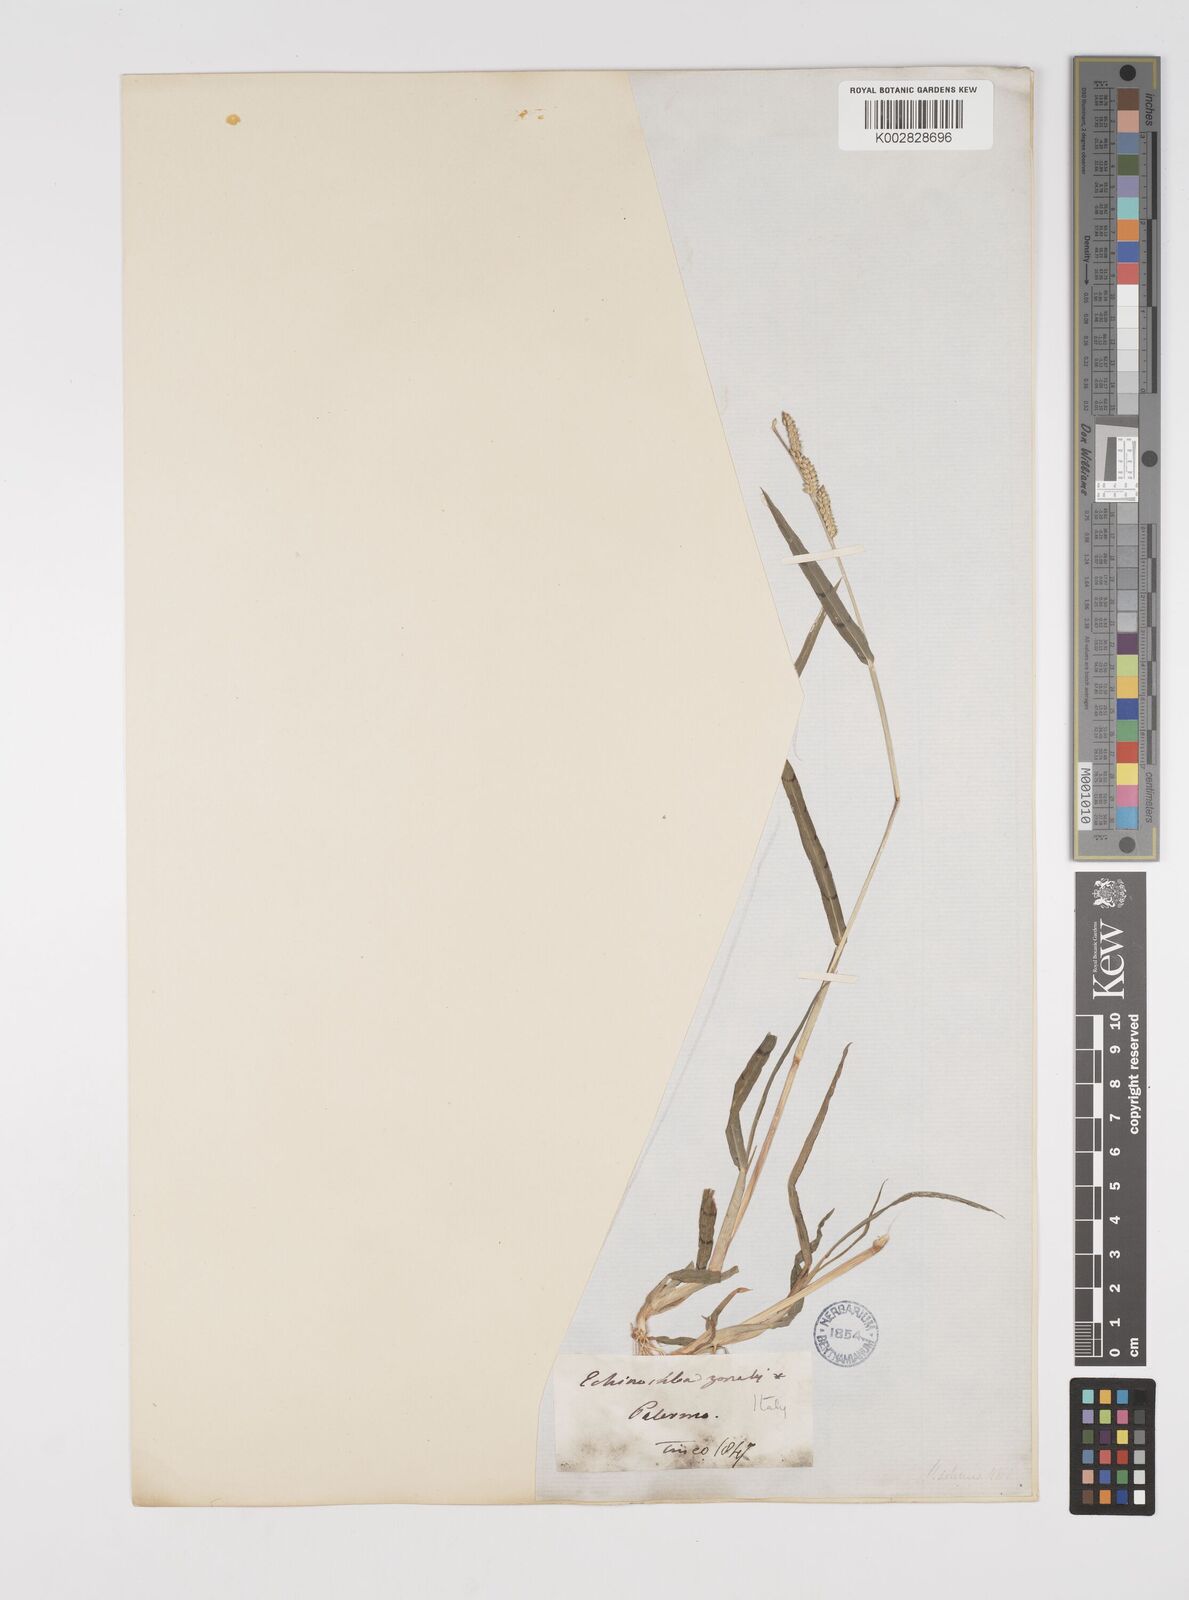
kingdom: Plantae
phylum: Tracheophyta
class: Liliopsida
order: Poales
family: Poaceae
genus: Echinochloa
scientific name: Echinochloa colonum
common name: Jungle rice
